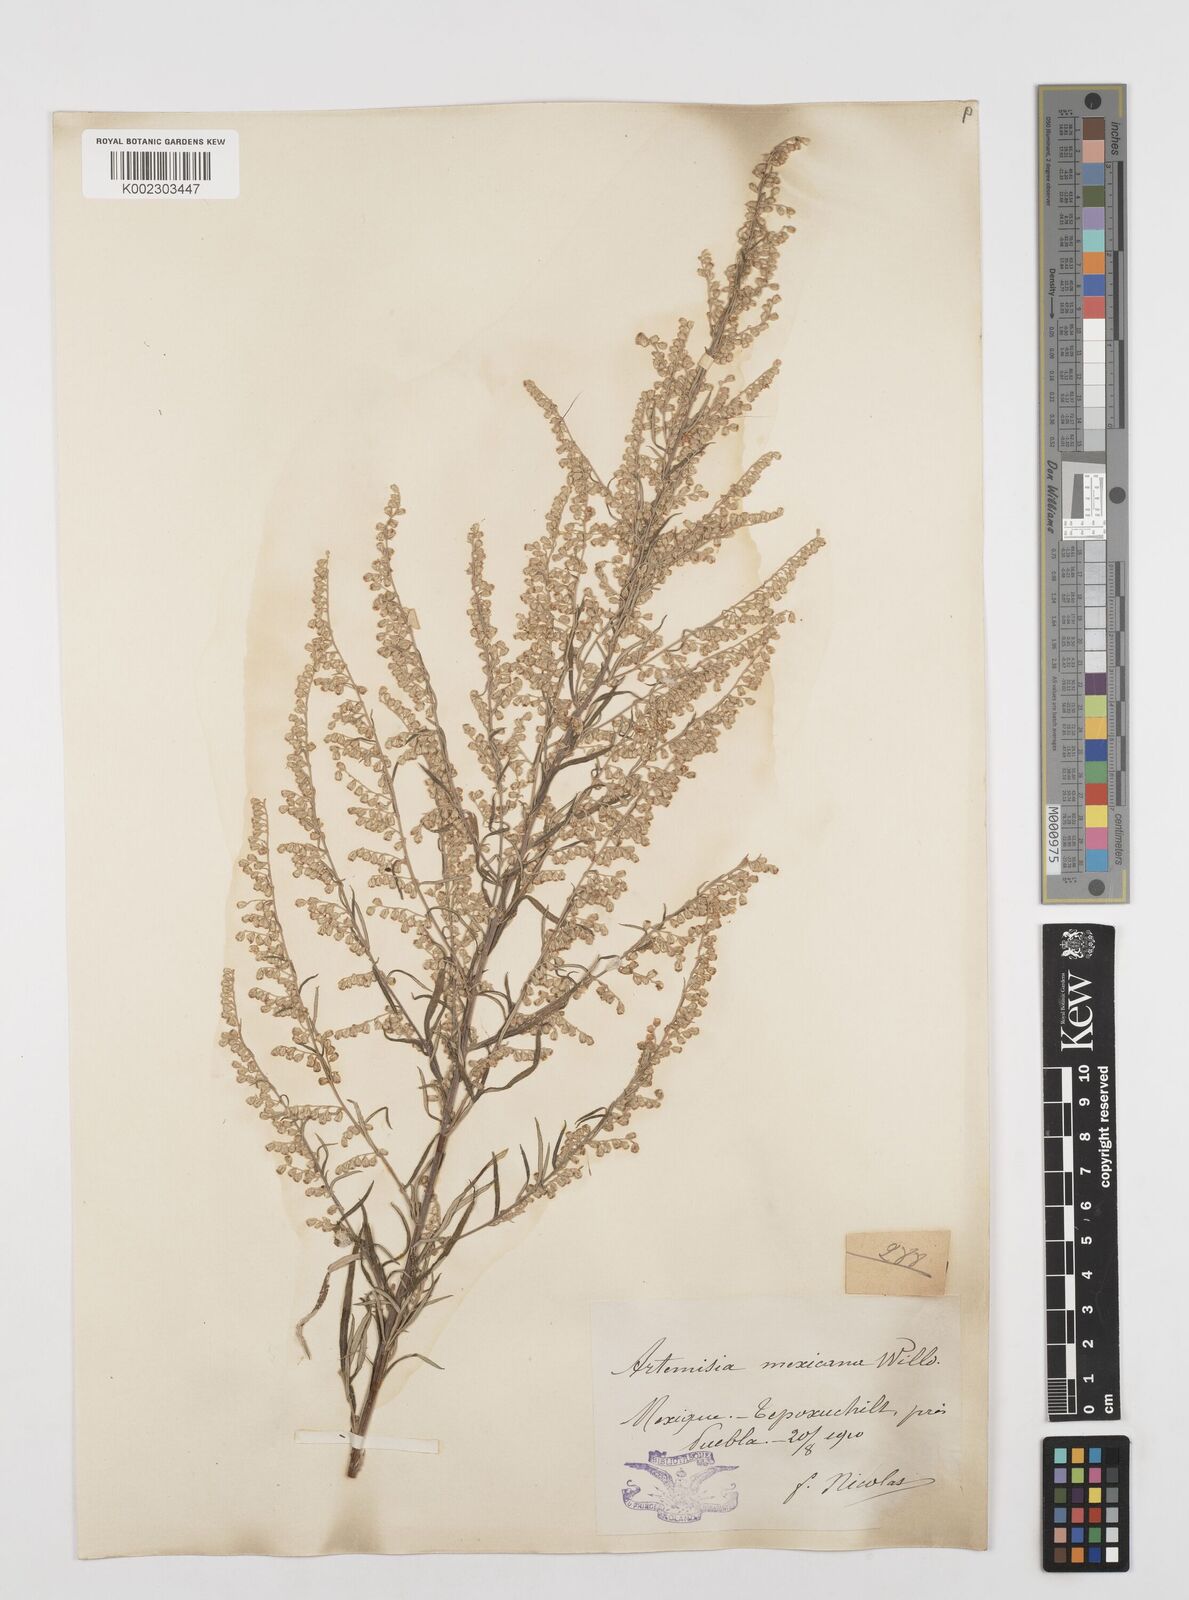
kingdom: Plantae
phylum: Tracheophyta
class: Magnoliopsida
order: Asterales
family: Asteraceae
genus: Artemisia
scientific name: Artemisia ludoviciana
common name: Western mugwort
